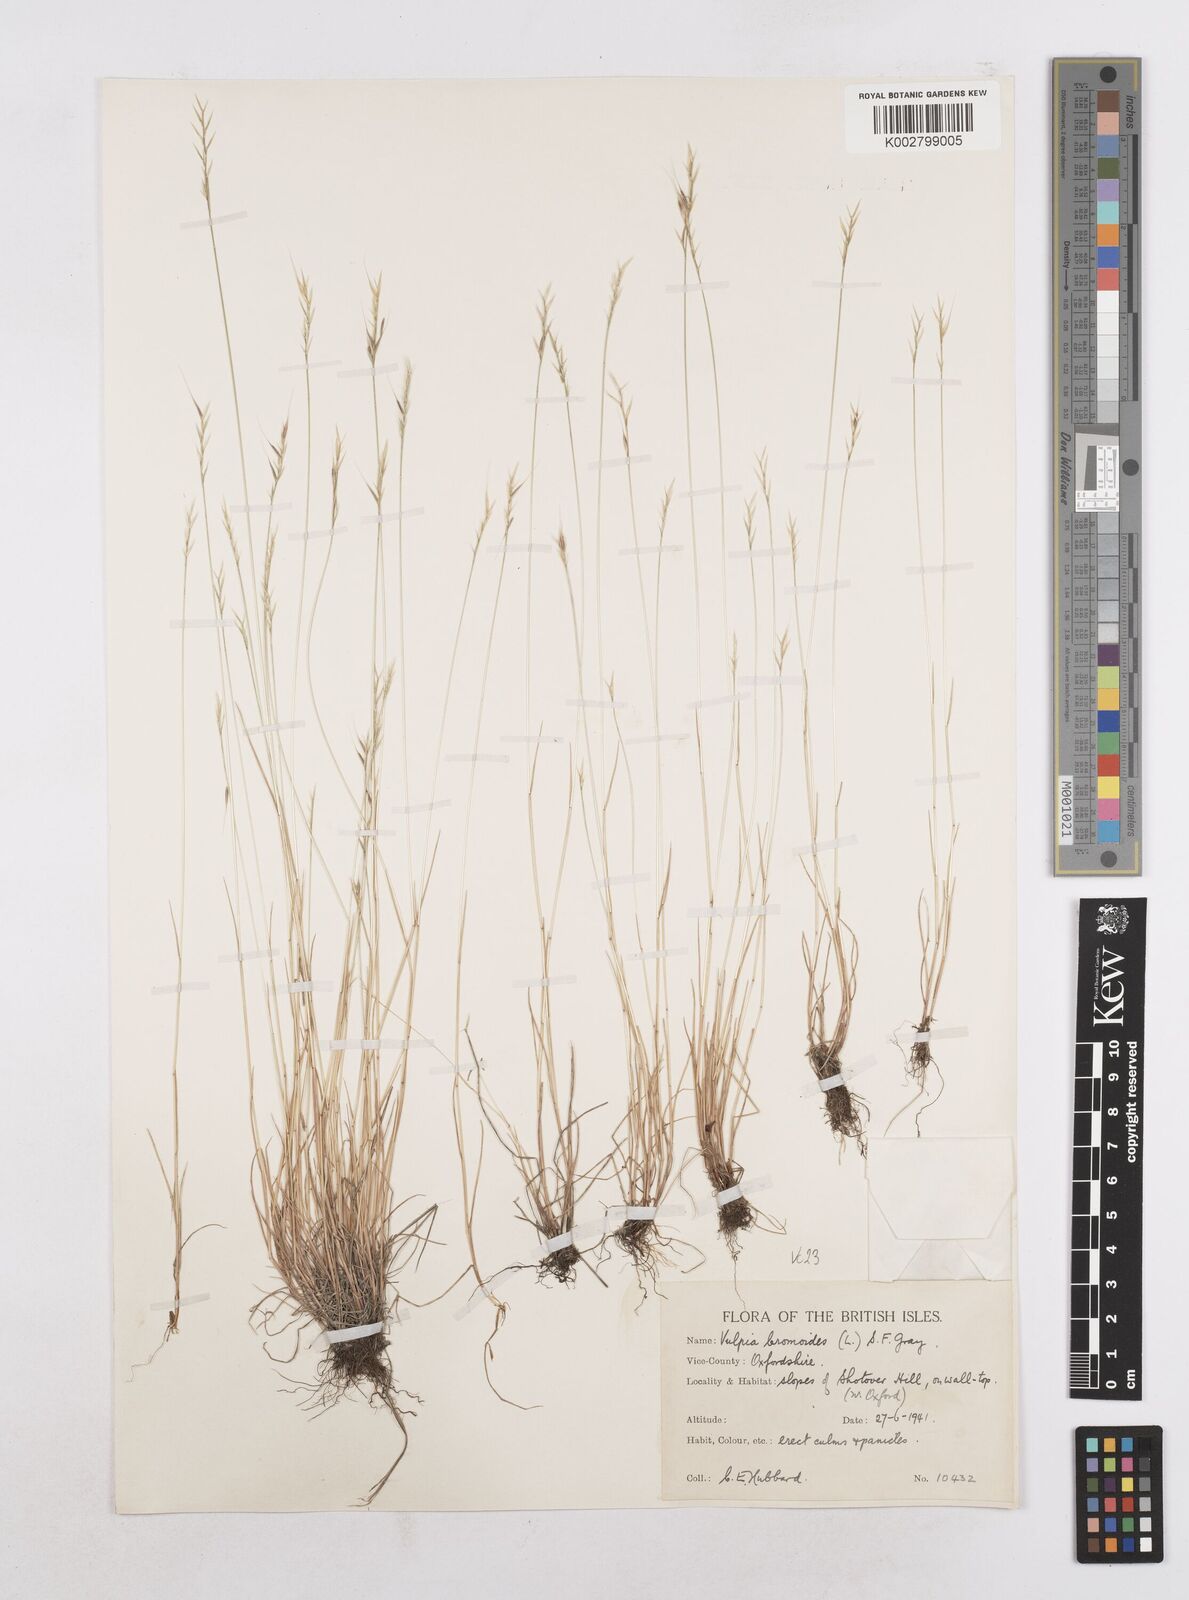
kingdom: Plantae
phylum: Tracheophyta
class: Liliopsida
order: Poales
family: Poaceae
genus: Festuca
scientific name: Festuca bromoides
